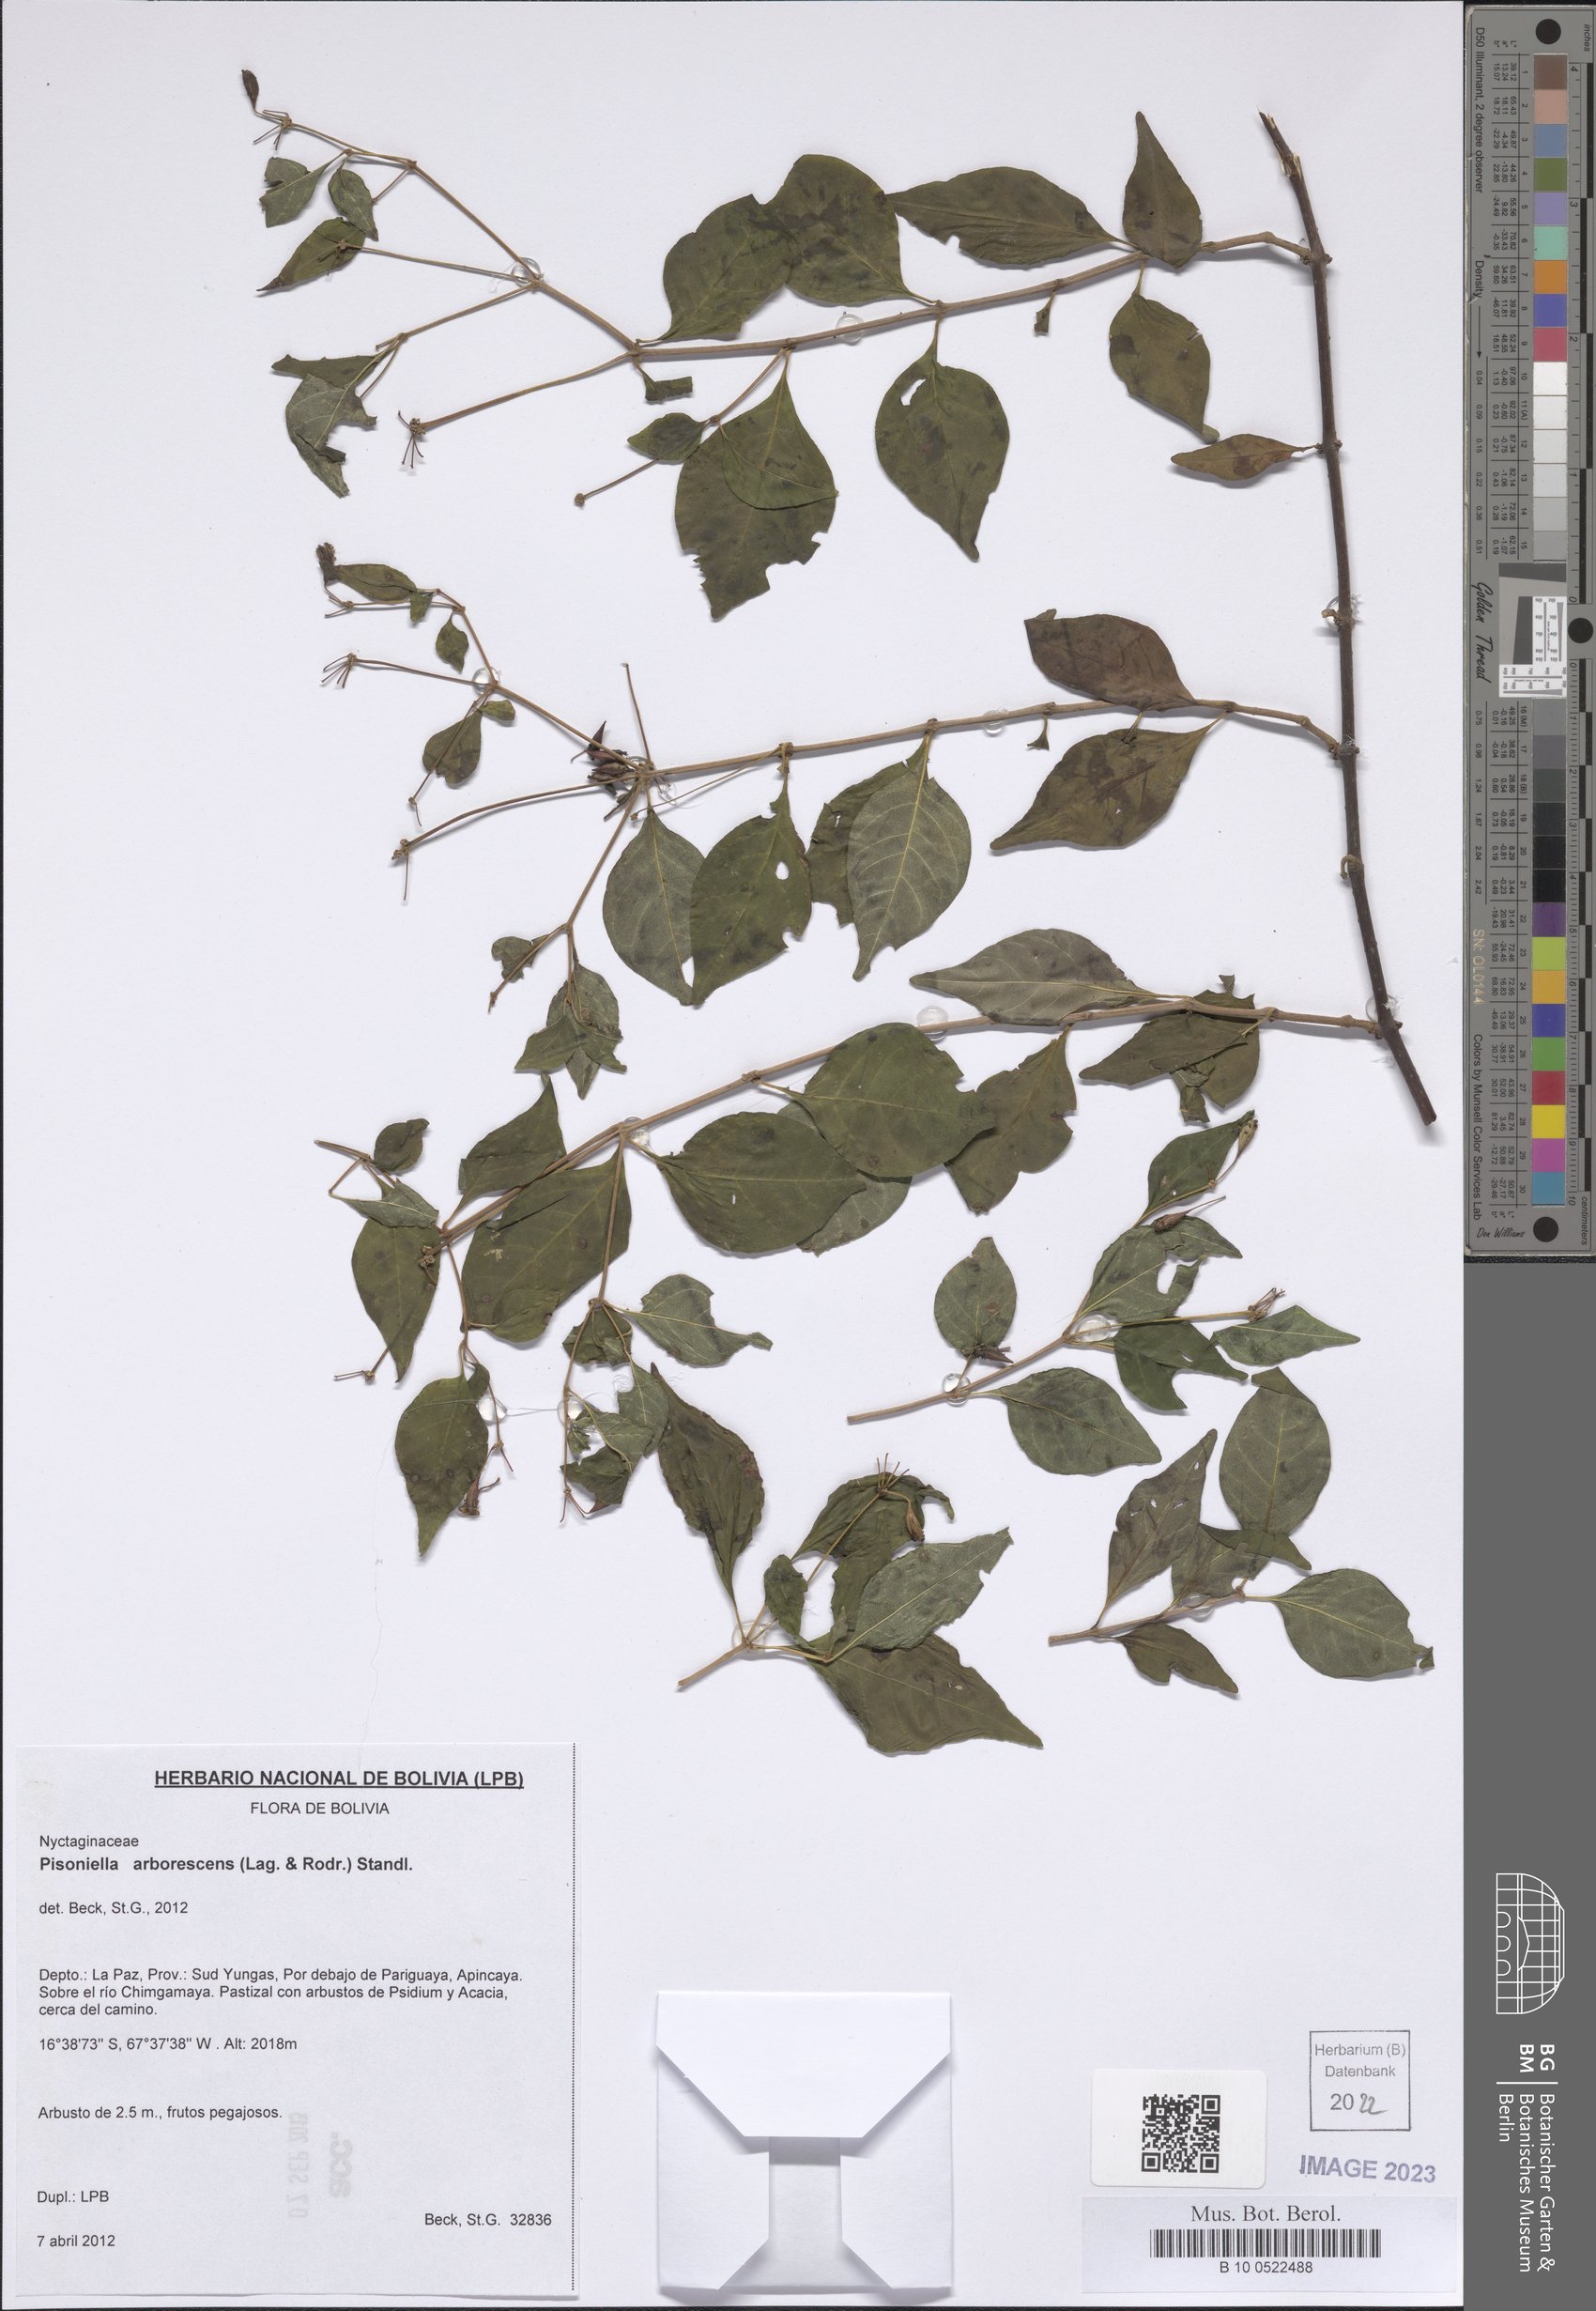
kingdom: Plantae
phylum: Tracheophyta
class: Magnoliopsida
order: Caryophyllales
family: Nyctaginaceae
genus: Pisoniella
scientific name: Pisoniella arborescens
